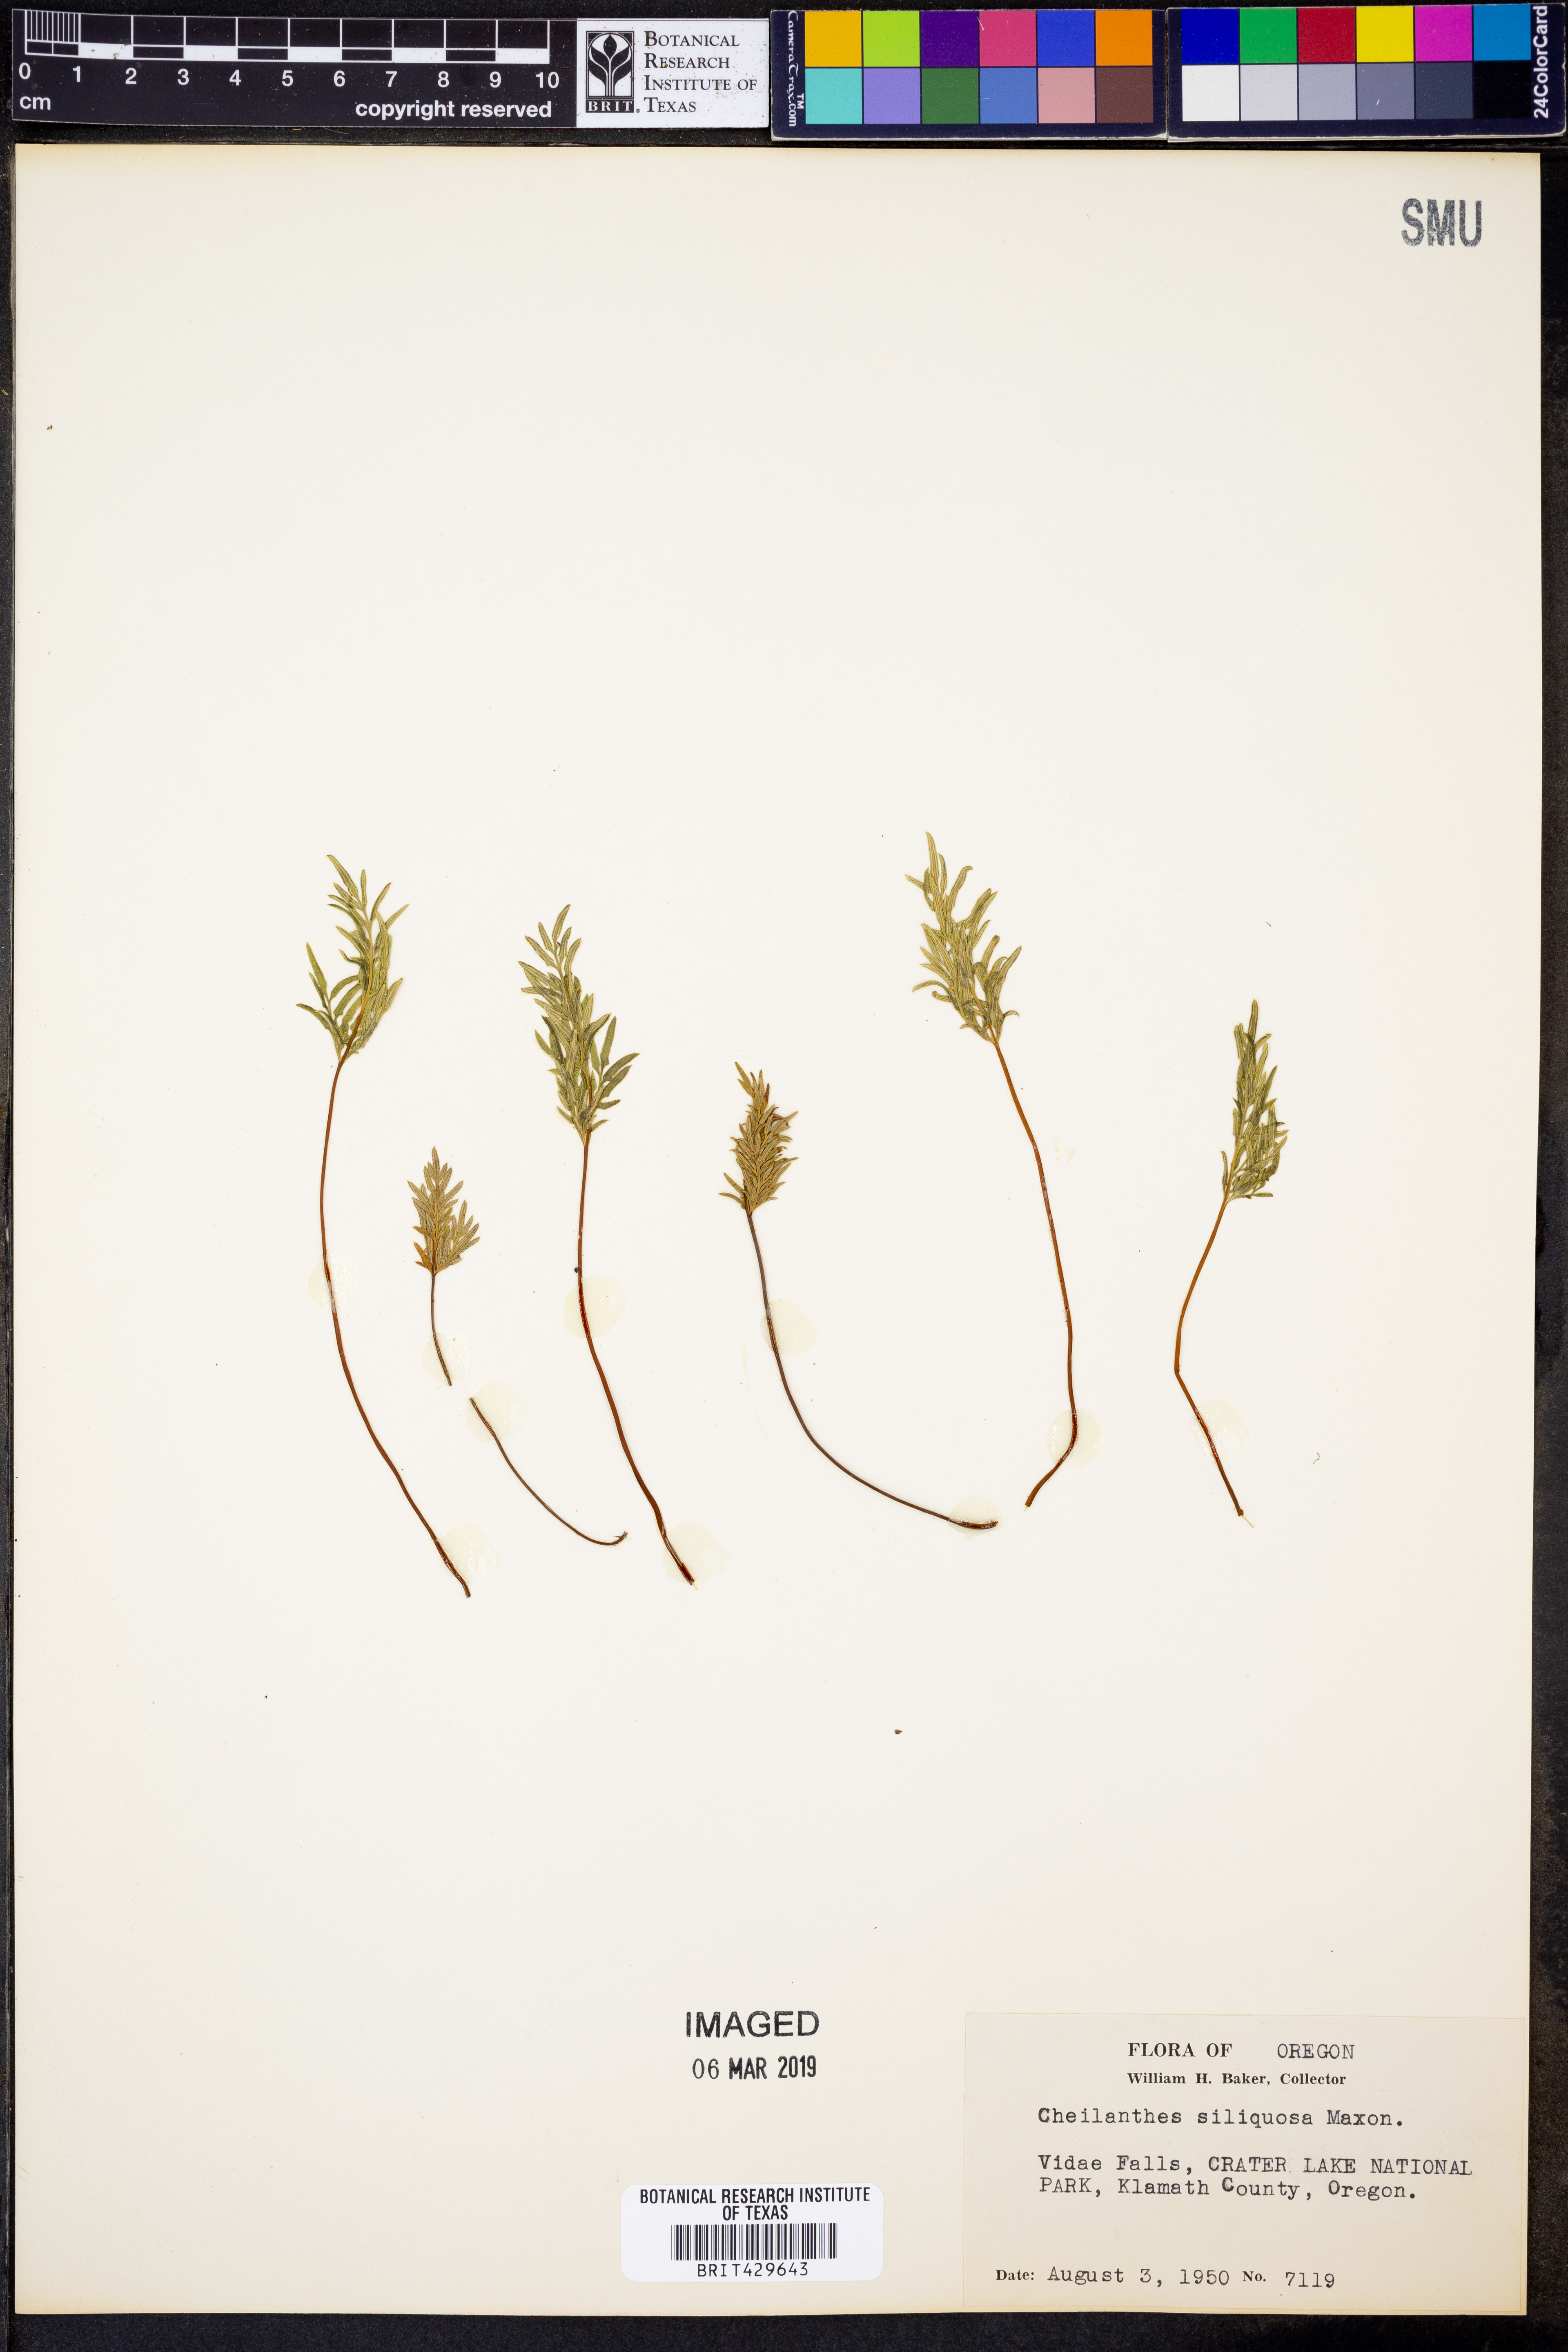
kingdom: Plantae
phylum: Tracheophyta
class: Polypodiopsida
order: Polypodiales
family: Pteridaceae
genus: Aspidotis
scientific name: Aspidotis densa
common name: Indian's dream
